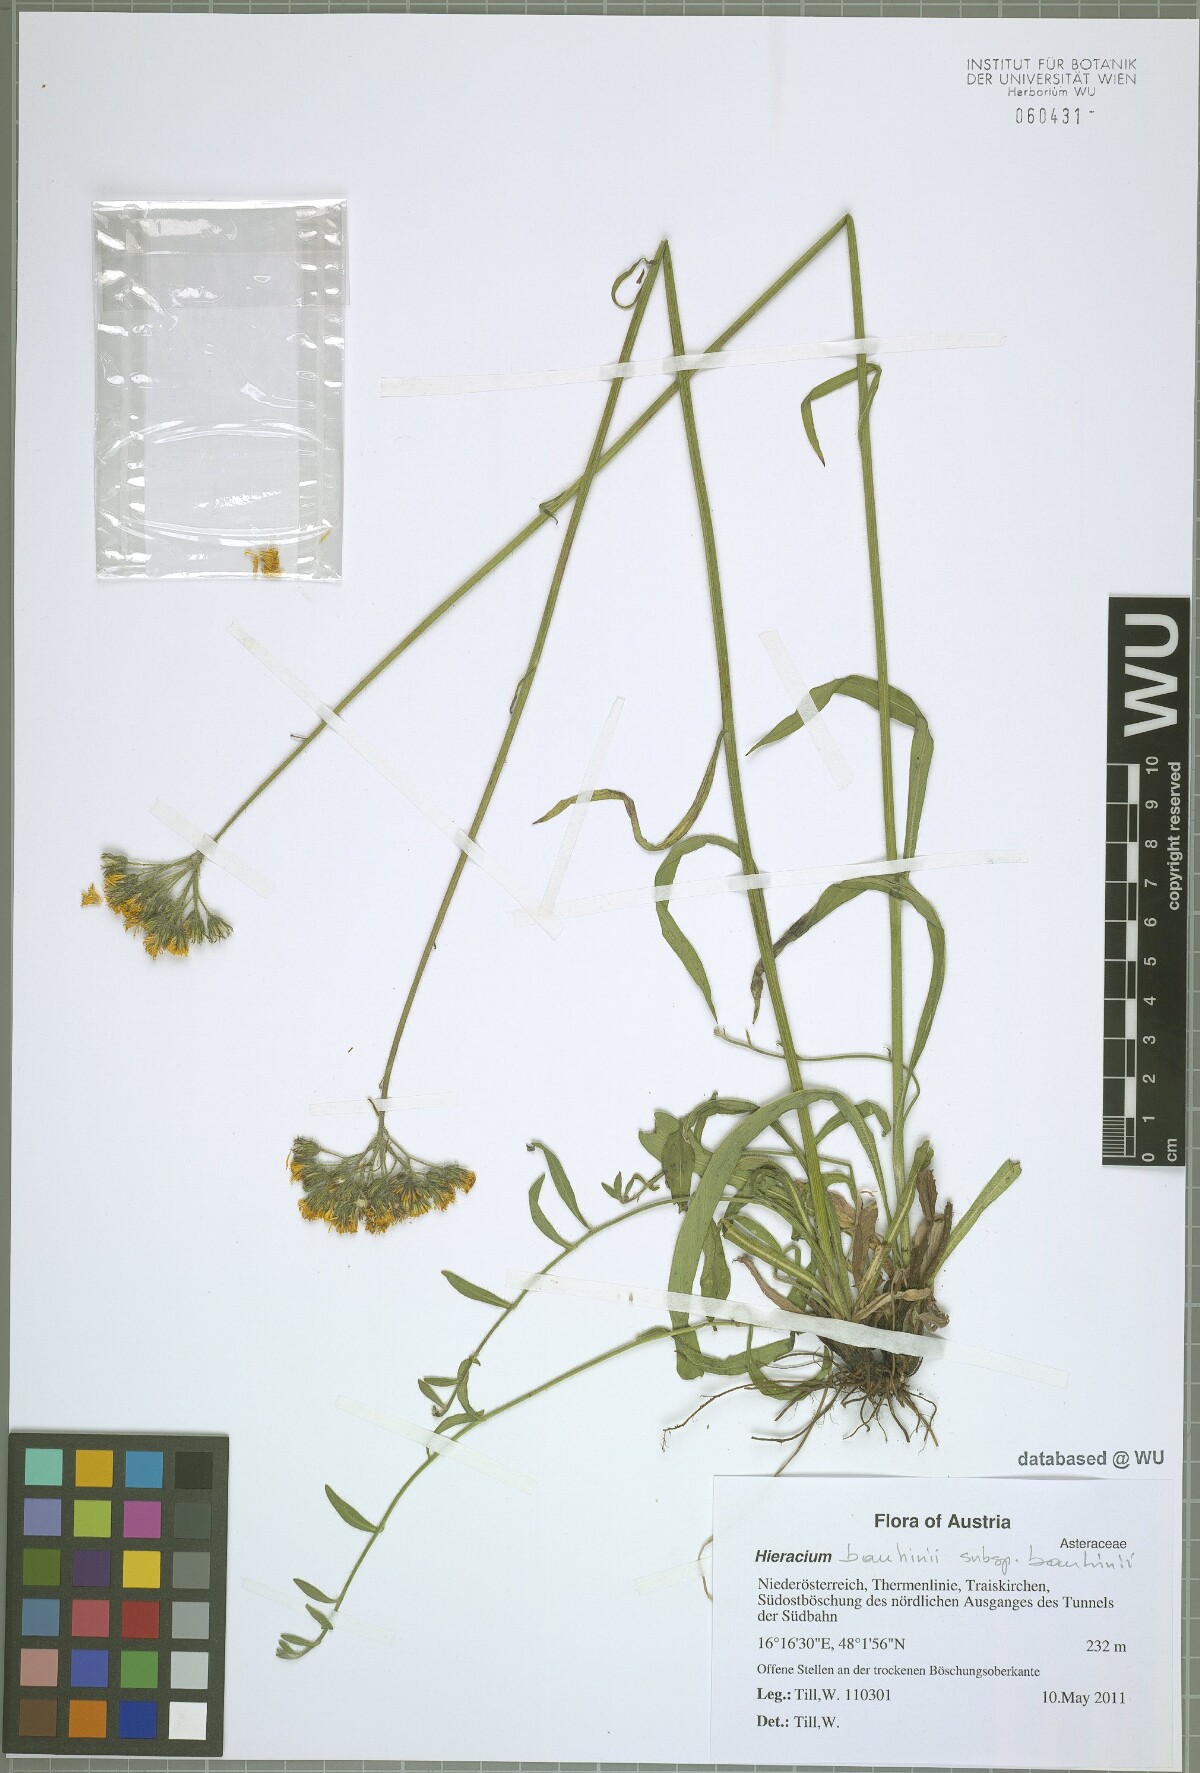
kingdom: Plantae
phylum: Tracheophyta
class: Magnoliopsida
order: Asterales
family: Asteraceae
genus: Pilosella
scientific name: Pilosella bauhini
